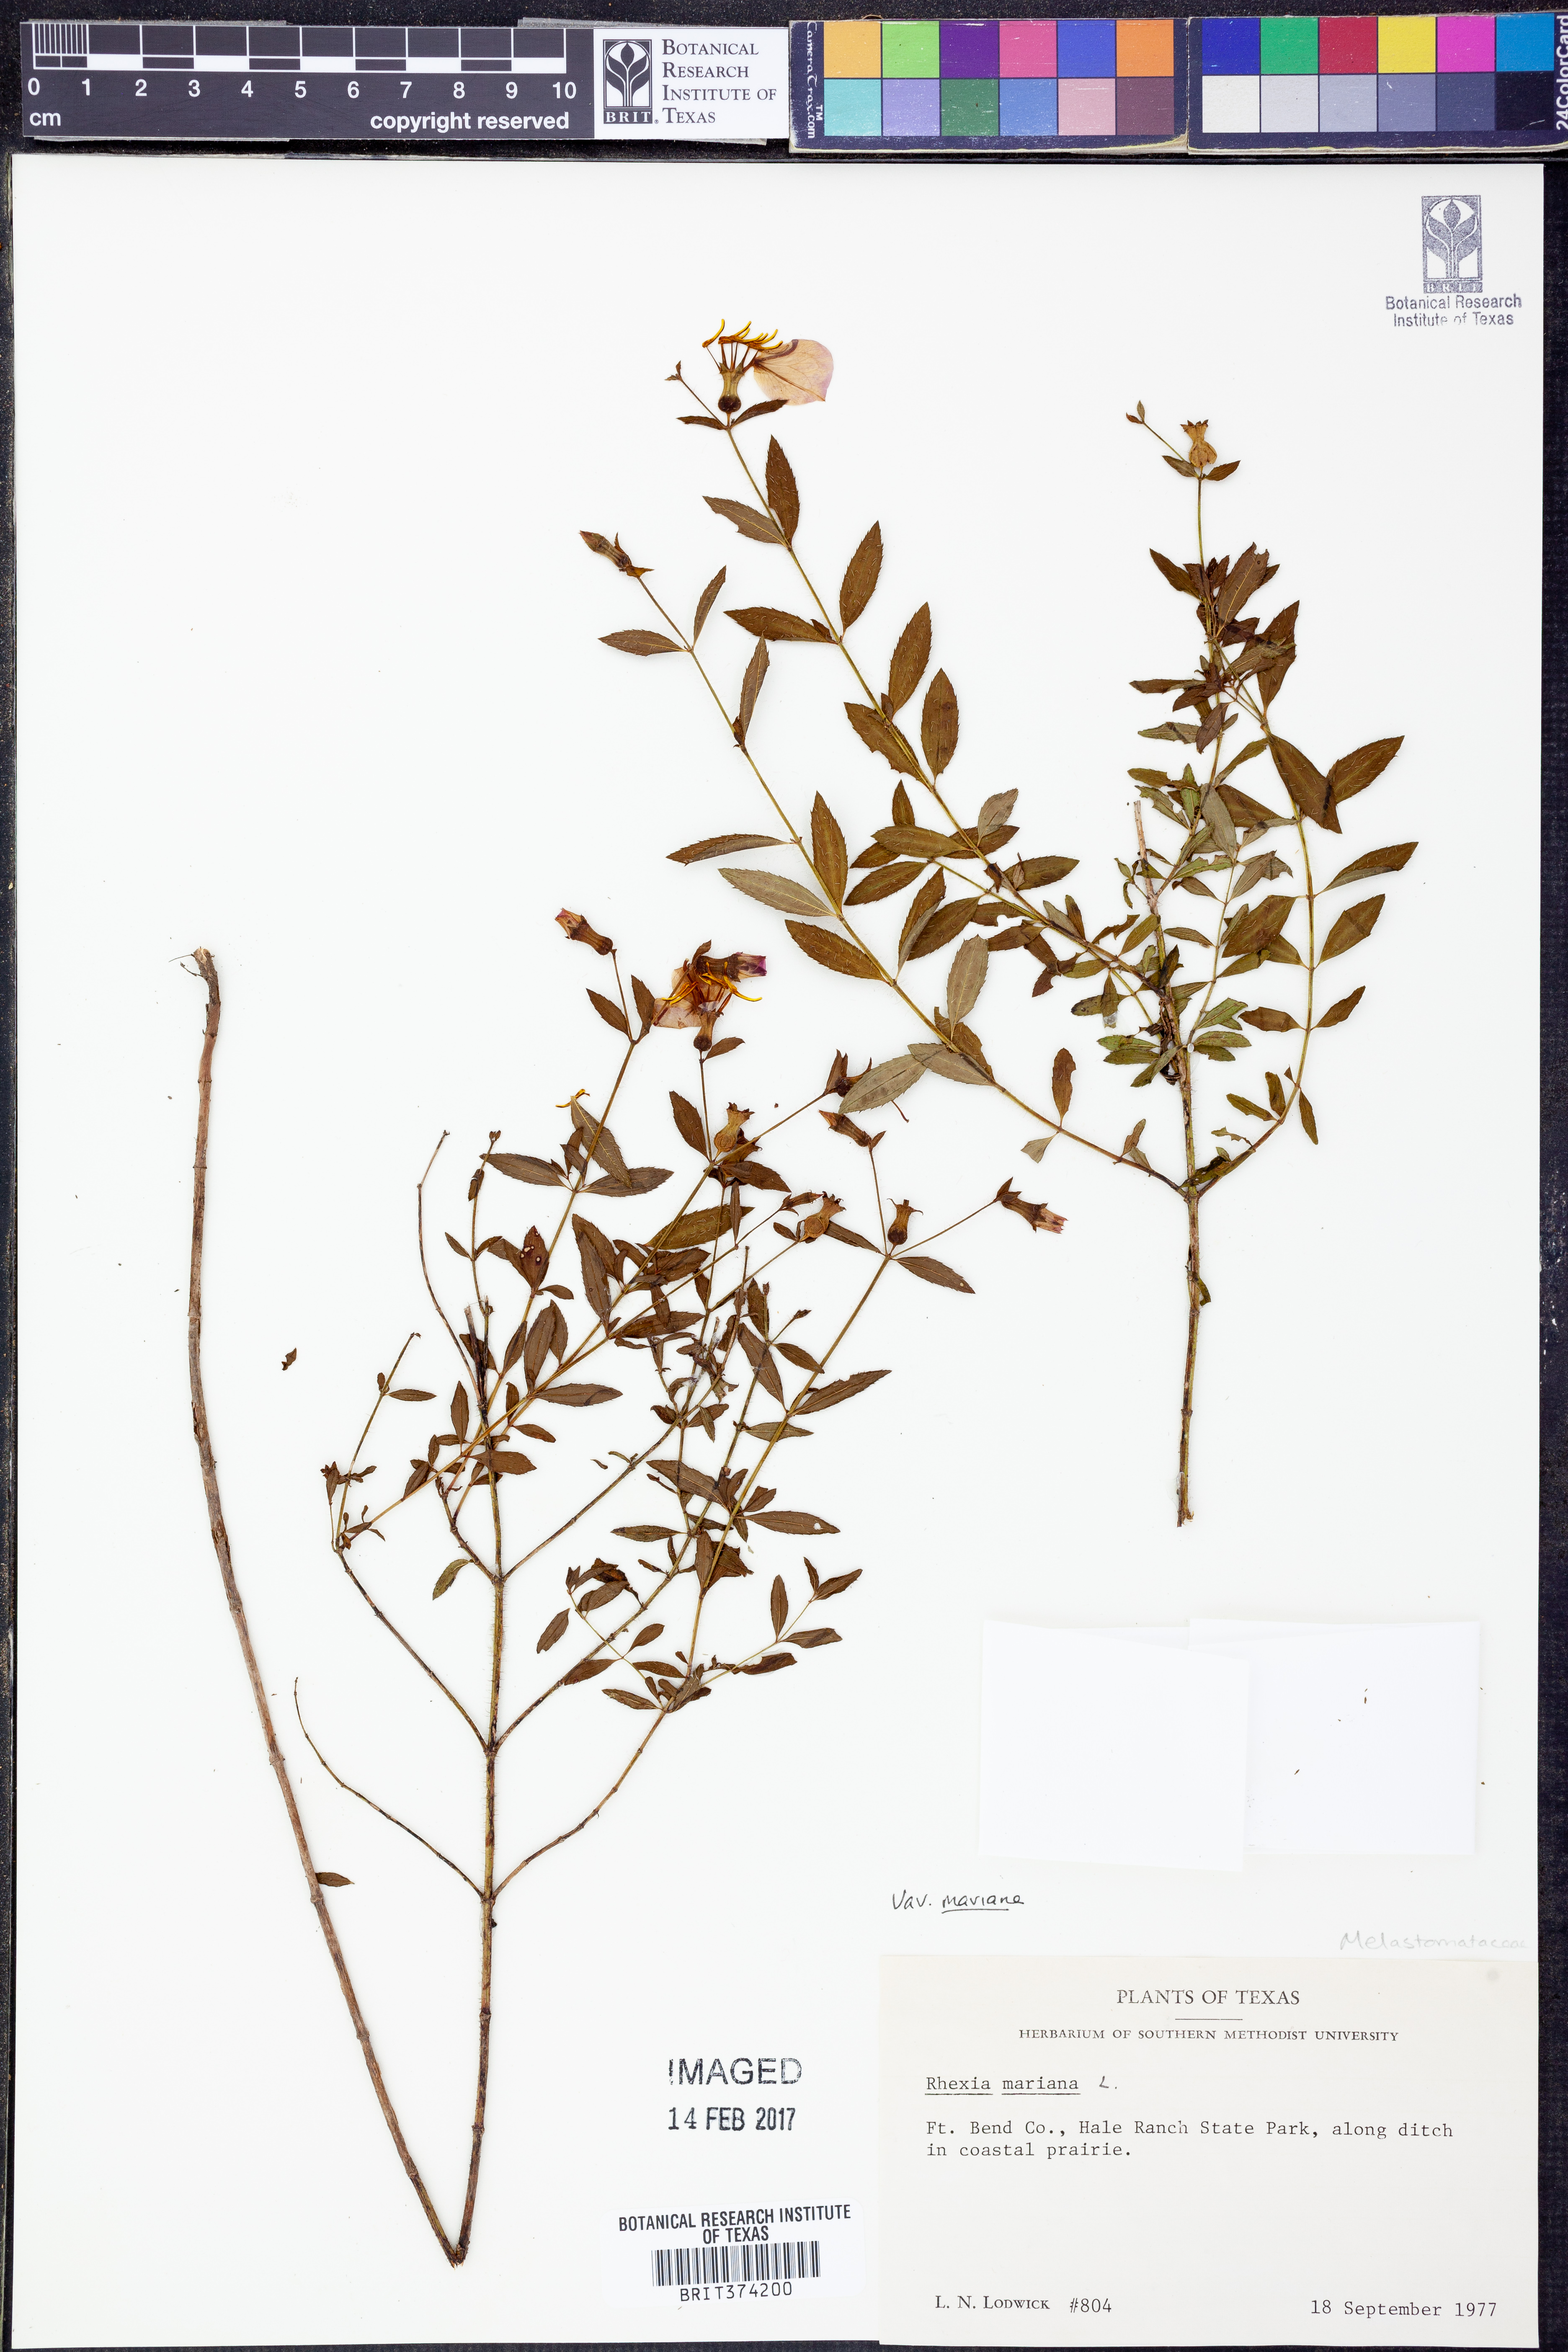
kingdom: Plantae
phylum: Tracheophyta
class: Magnoliopsida
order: Myrtales
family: Melastomataceae
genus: Rhexia
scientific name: Rhexia mariana
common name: Dull meadow-pitcher
